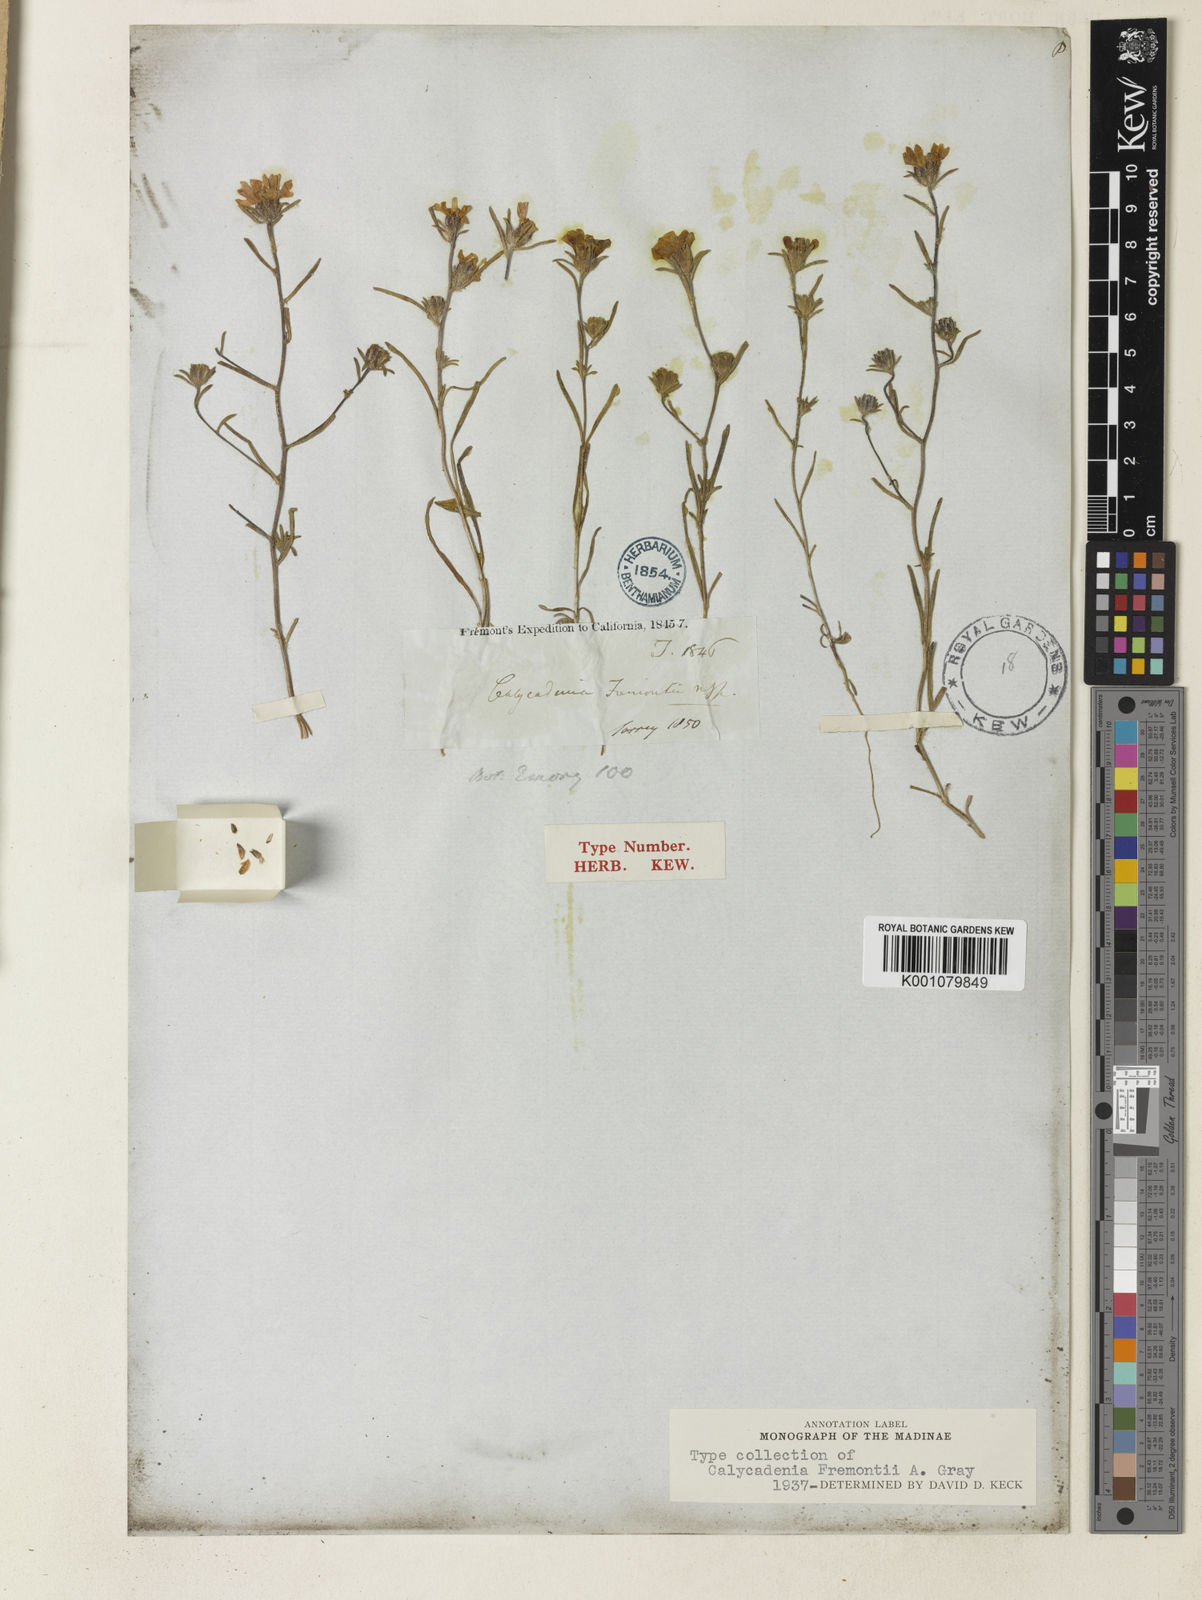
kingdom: Plantae
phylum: Tracheophyta
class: Magnoliopsida
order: Asterales
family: Asteraceae
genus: Calycadenia
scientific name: Calycadenia fremontii
